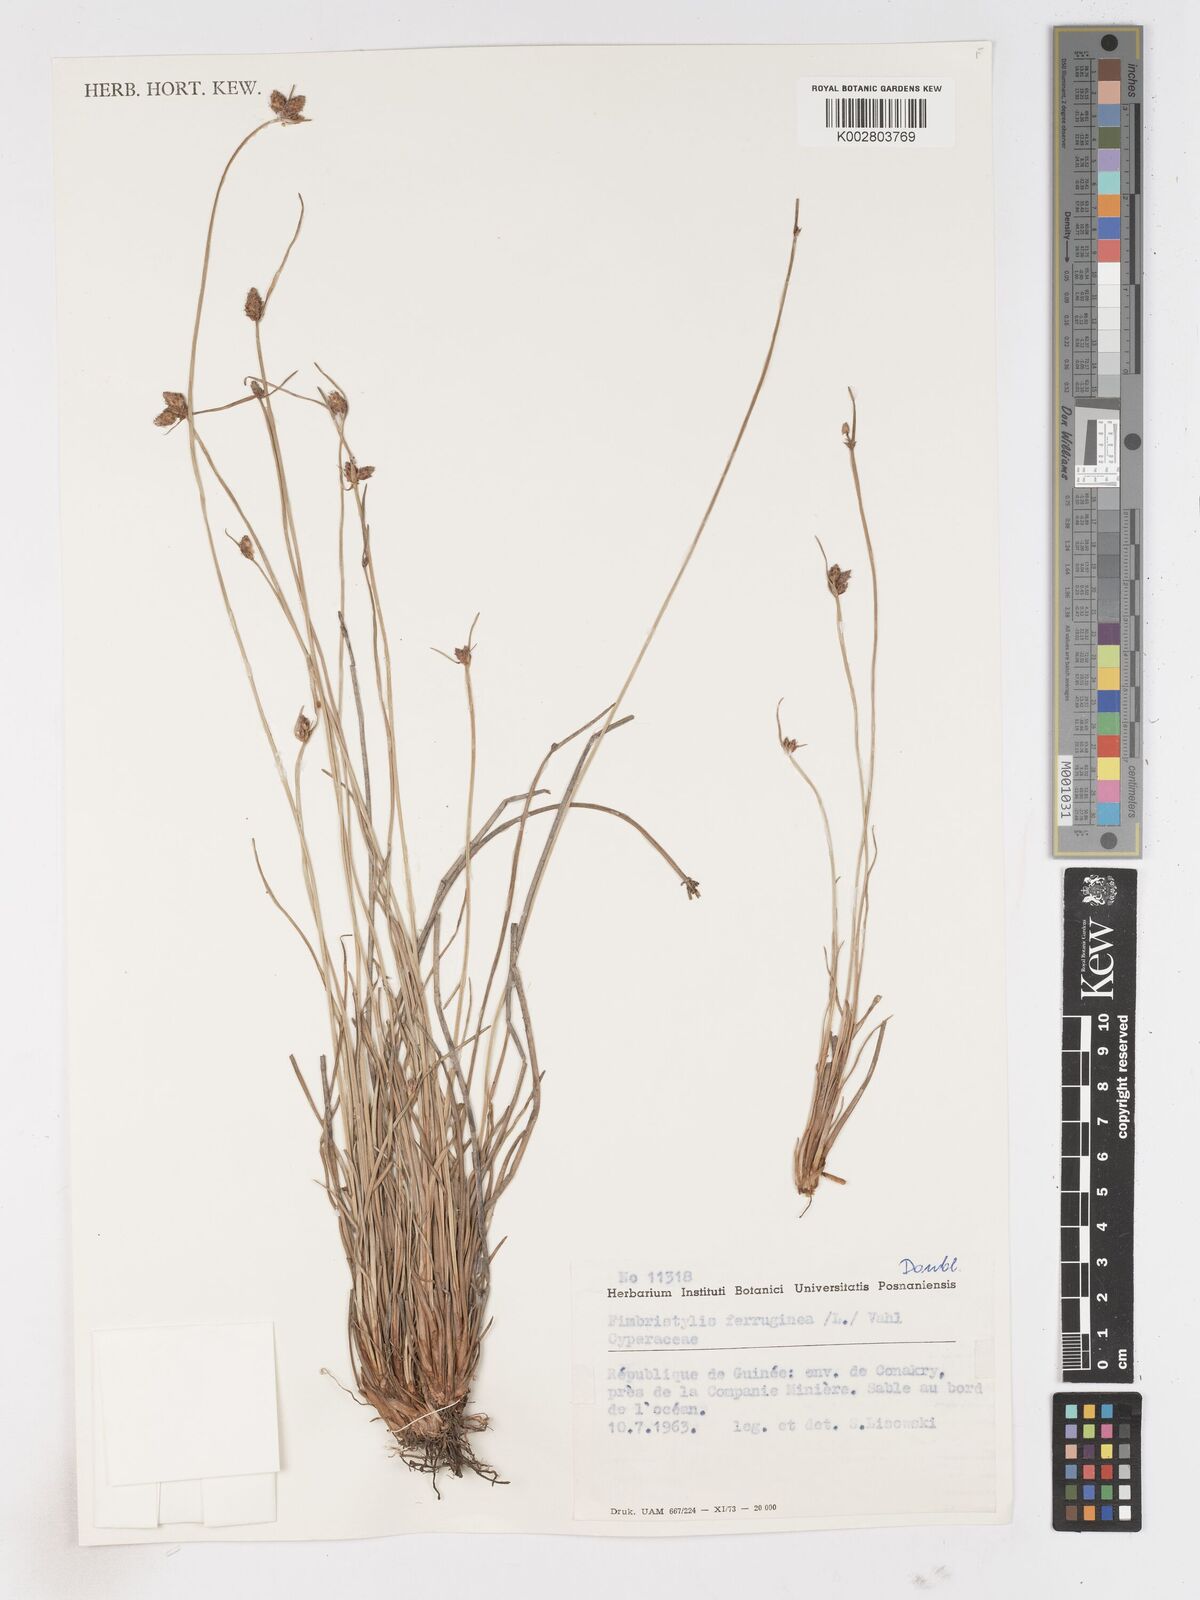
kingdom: Plantae
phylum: Tracheophyta
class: Liliopsida
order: Poales
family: Cyperaceae
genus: Fimbristylis
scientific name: Fimbristylis ferruginea
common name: West indian fimbry
